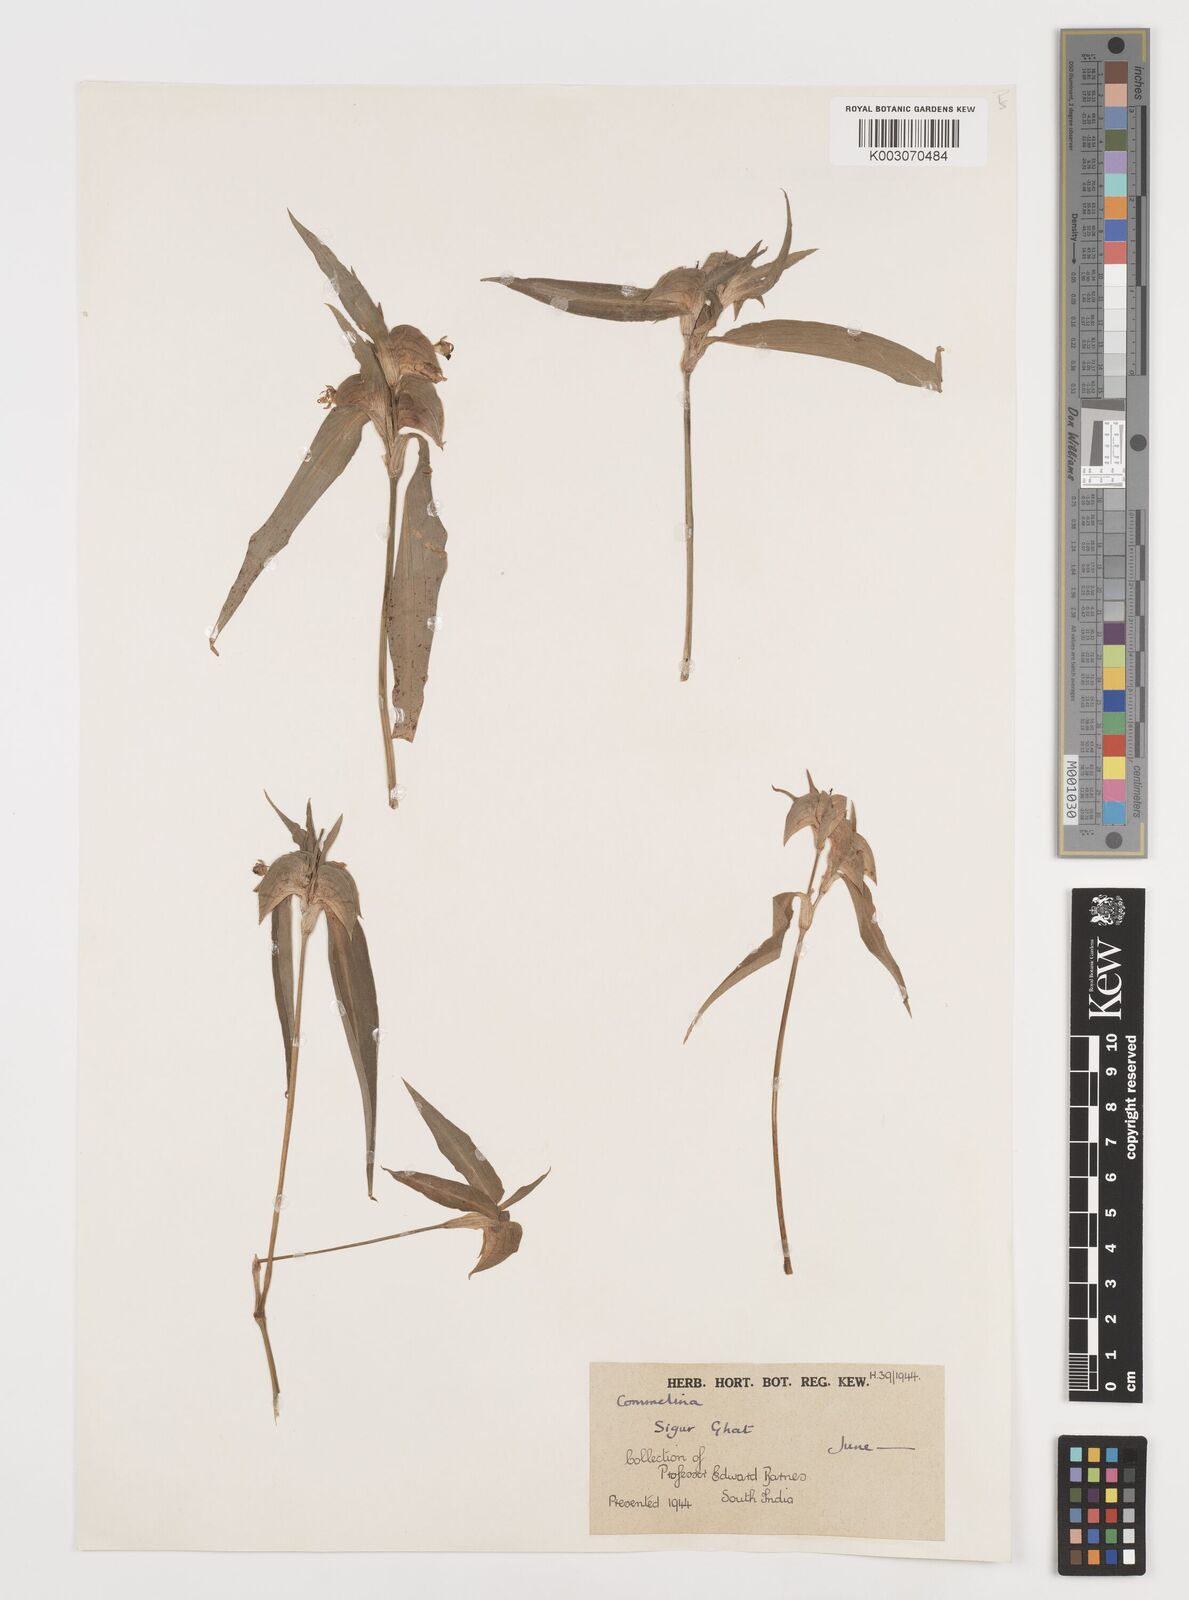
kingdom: Plantae
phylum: Tracheophyta
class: Liliopsida
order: Commelinales
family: Commelinaceae
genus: Commelina
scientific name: Commelina
